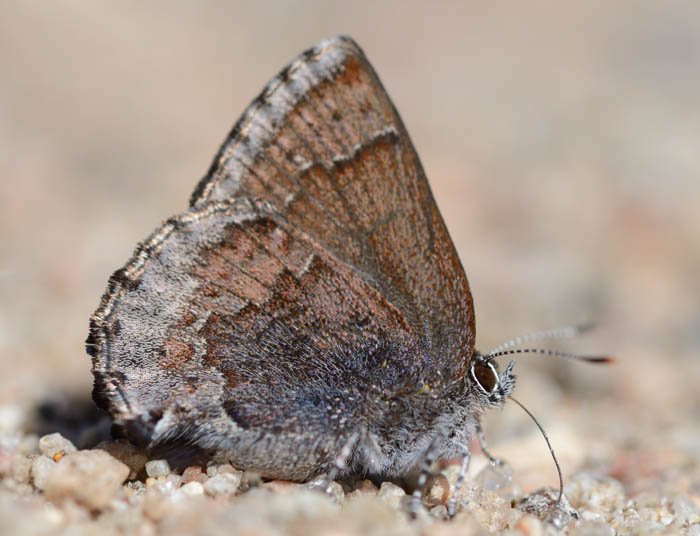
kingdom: Animalia
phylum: Arthropoda
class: Insecta
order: Lepidoptera
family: Lycaenidae
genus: Callophrys
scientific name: Callophrys polios
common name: Hoary Elfin
